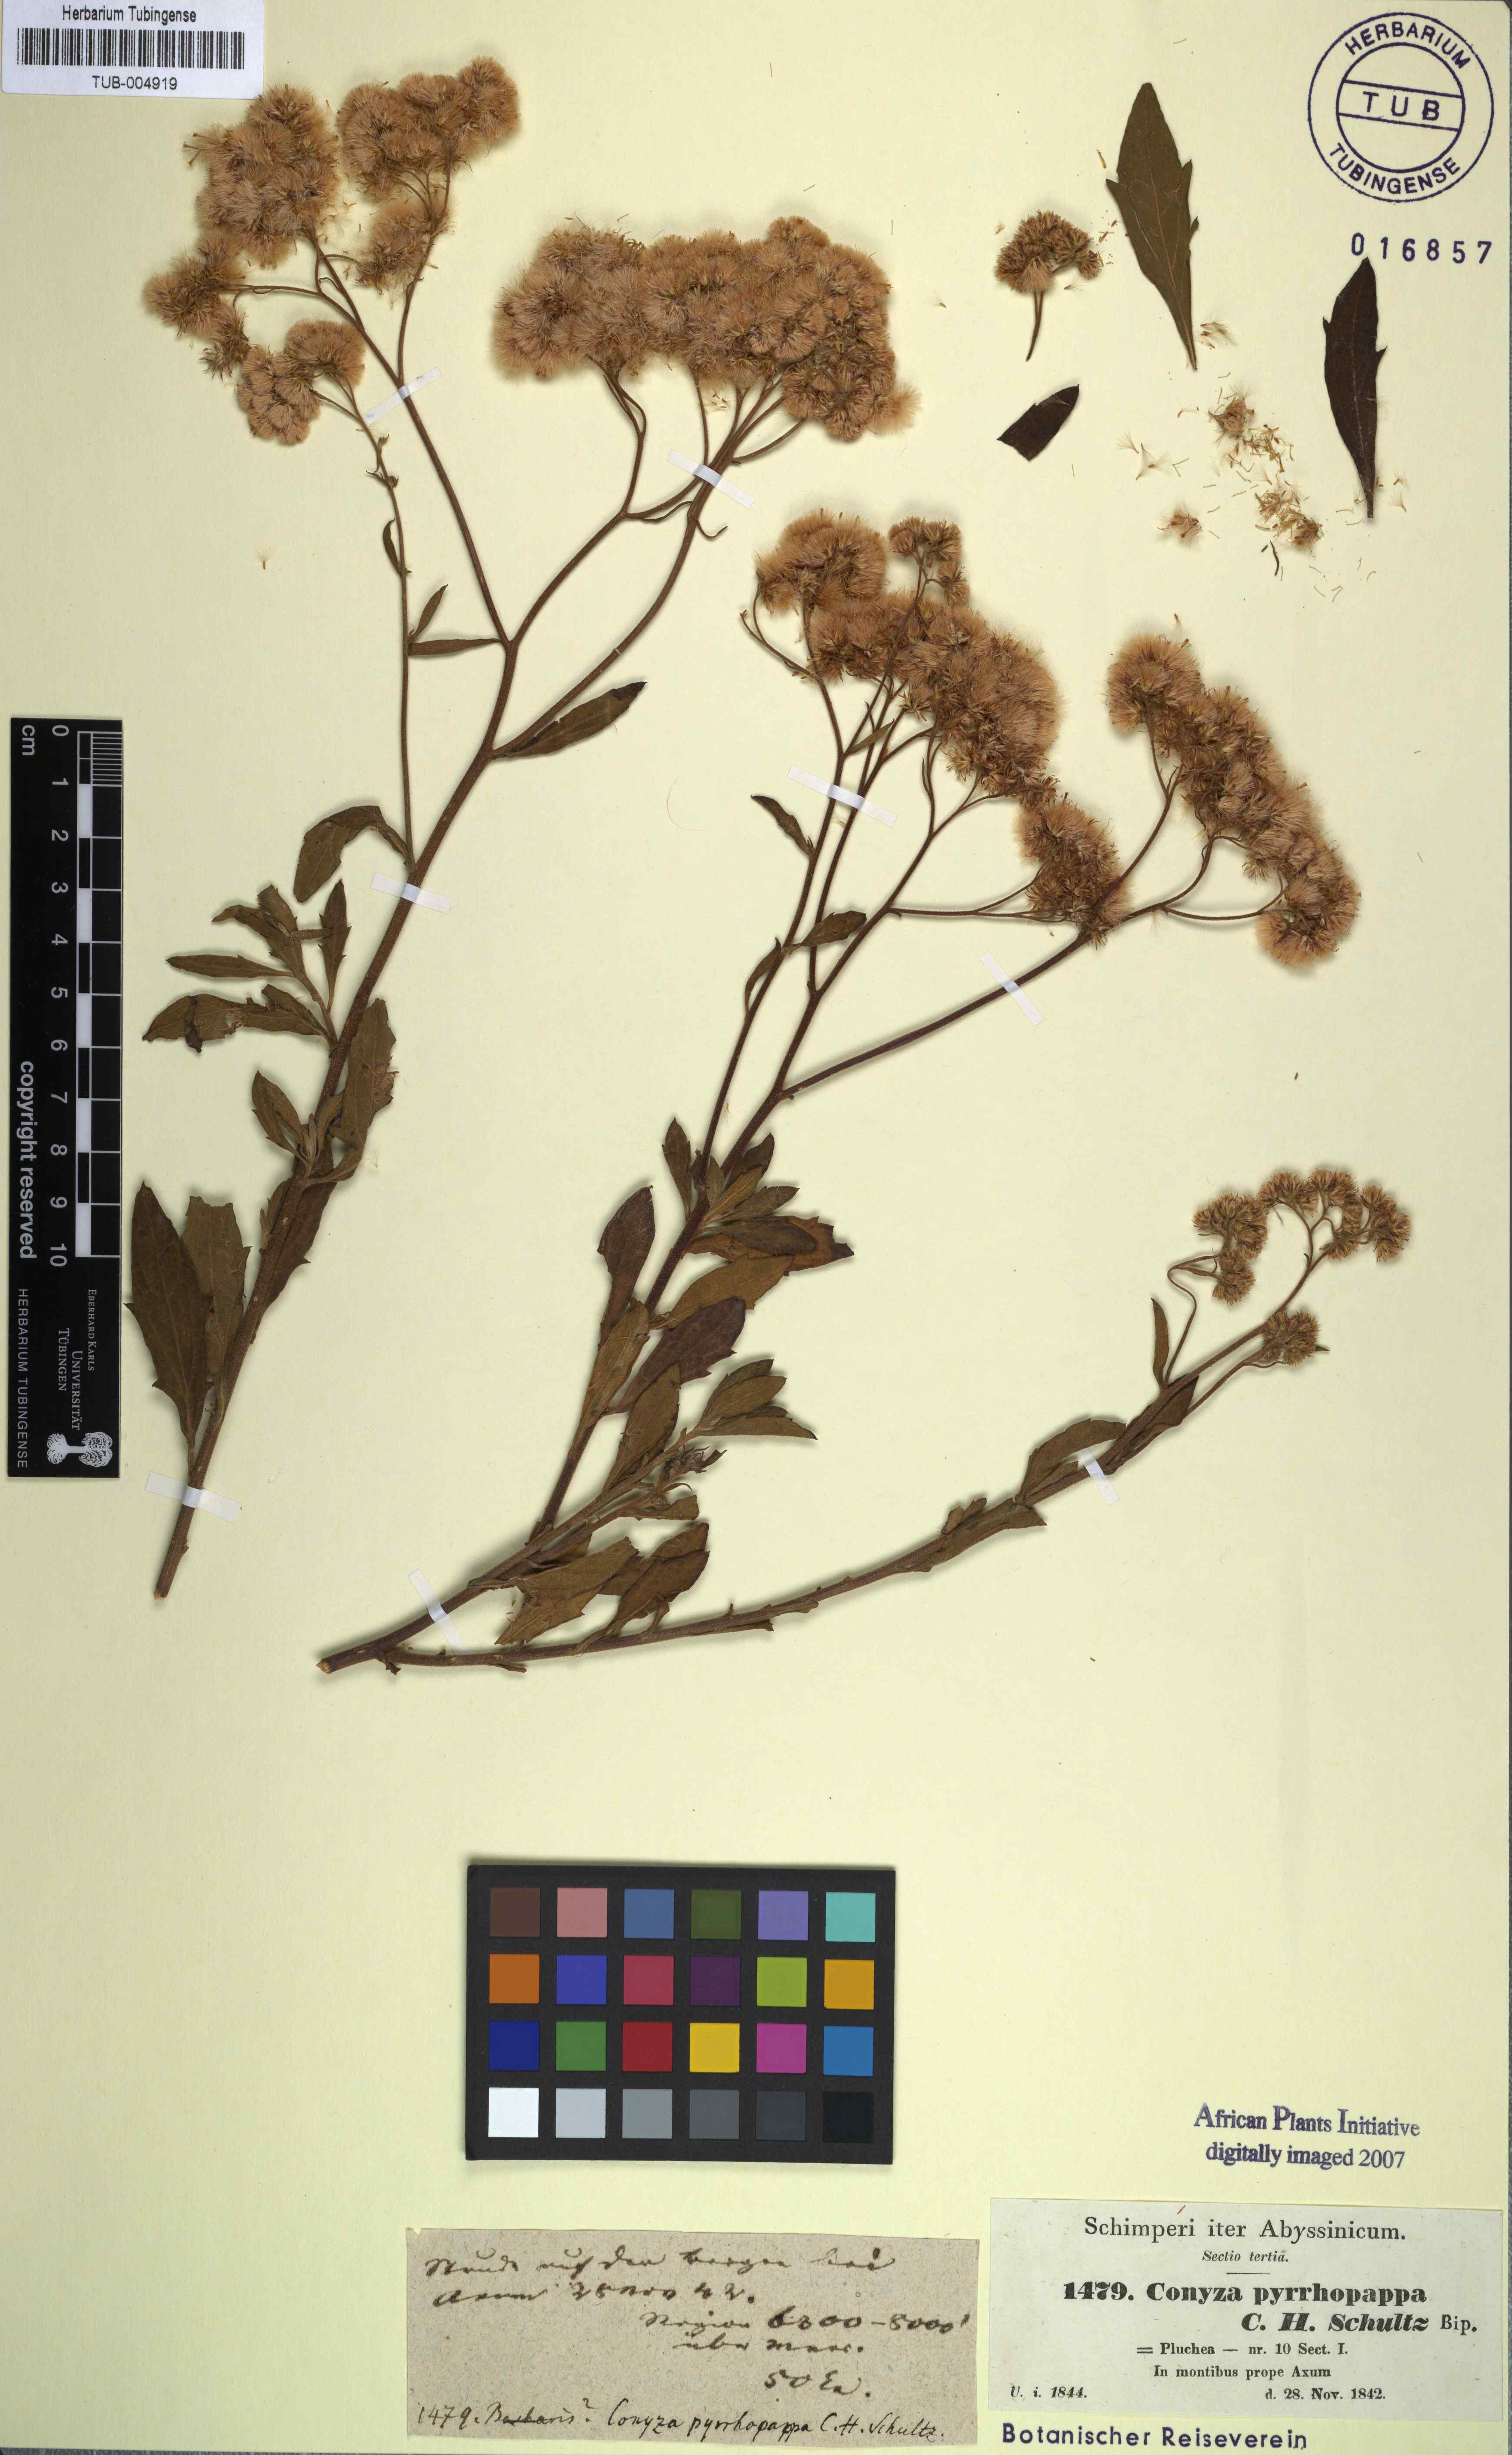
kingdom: Plantae
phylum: Tracheophyta
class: Magnoliopsida
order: Asterales
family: Asteraceae
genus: Microglossa
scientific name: Microglossa pyrrhopappa
